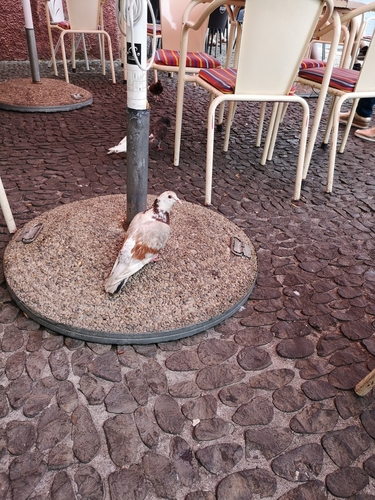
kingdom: Animalia
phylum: Chordata
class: Aves
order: Columbiformes
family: Columbidae
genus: Columba
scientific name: Columba livia
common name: Rock pigeon
